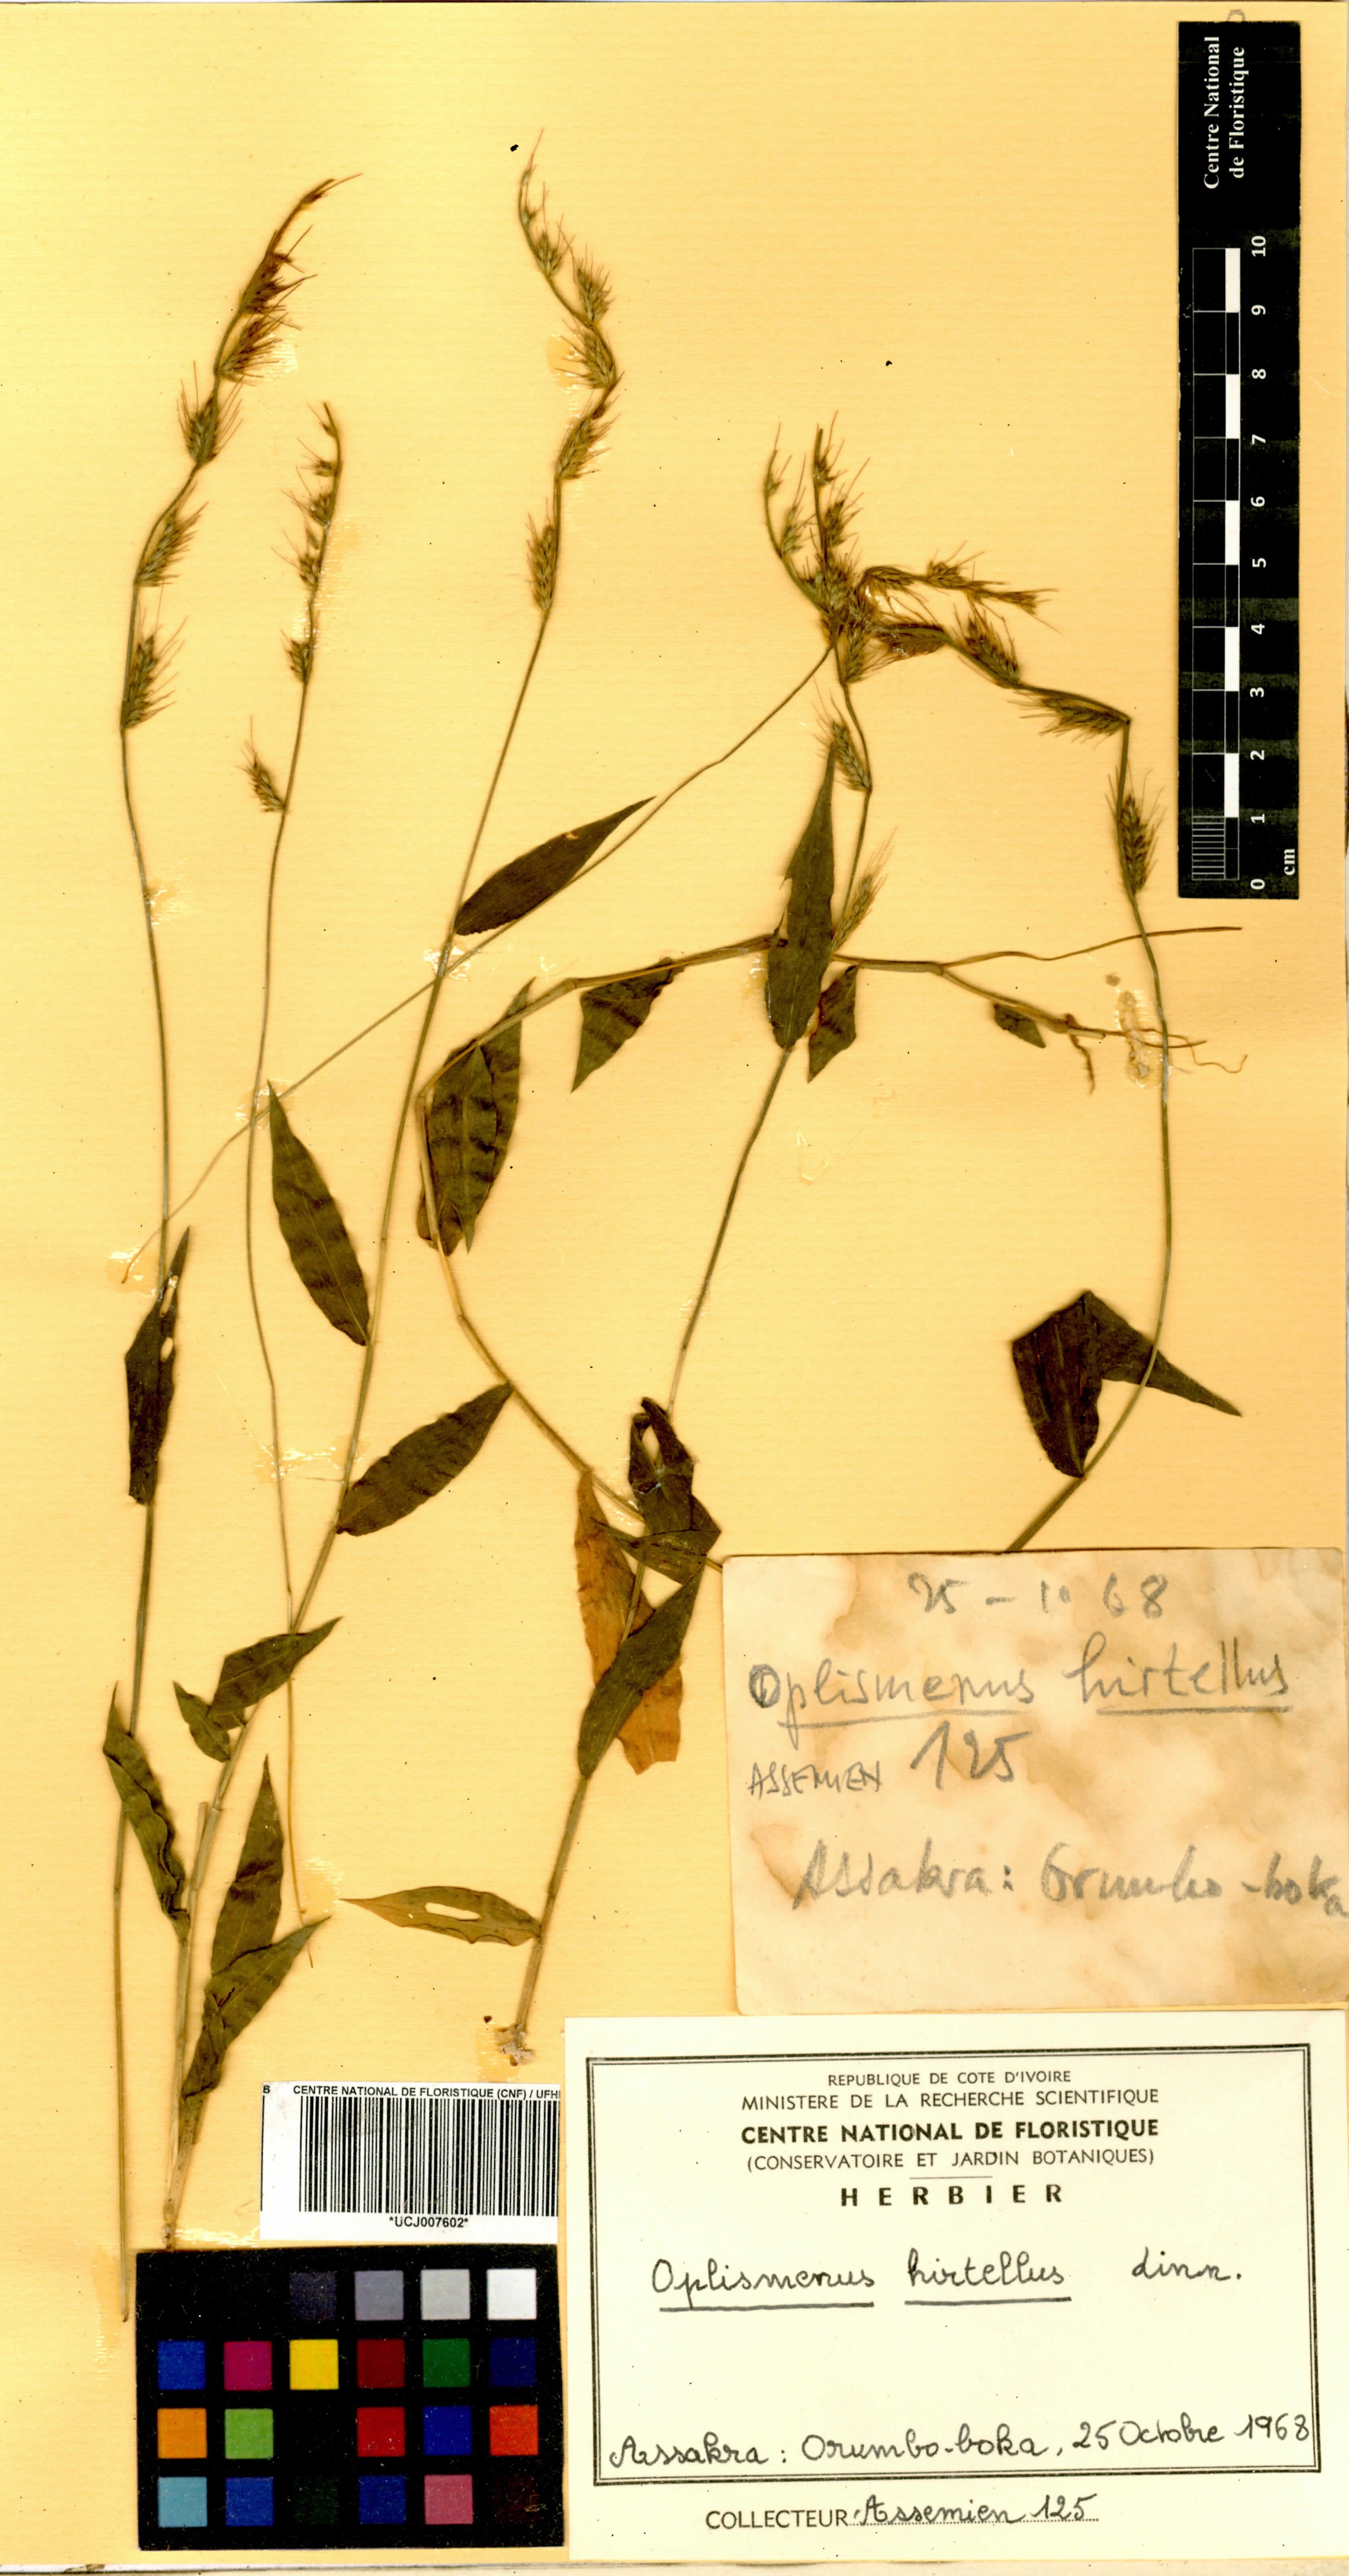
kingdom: Plantae
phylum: Tracheophyta
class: Liliopsida
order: Poales
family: Poaceae
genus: Oplismenus
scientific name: Oplismenus hirtellus
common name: Basketgrass
